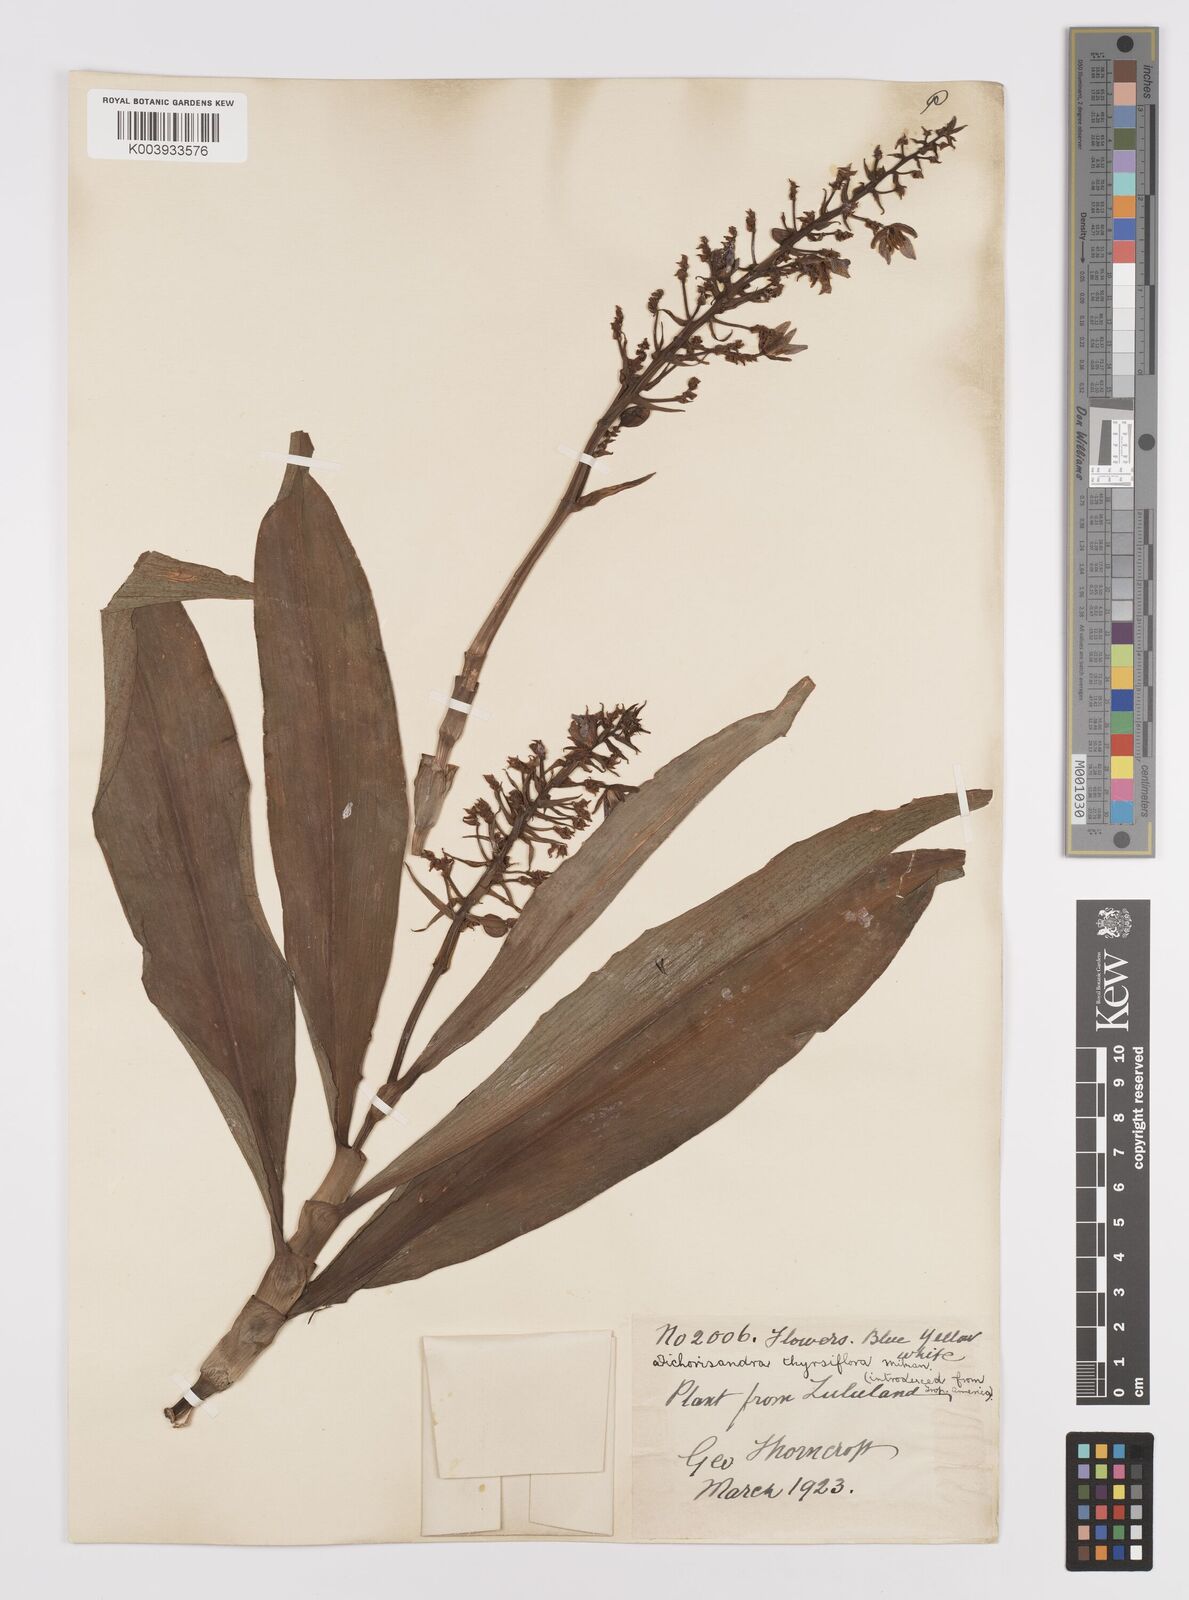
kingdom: Plantae
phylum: Tracheophyta
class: Liliopsida
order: Commelinales
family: Commelinaceae
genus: Dichorisandra
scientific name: Dichorisandra thyrsiflora
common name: Blue-ginger
